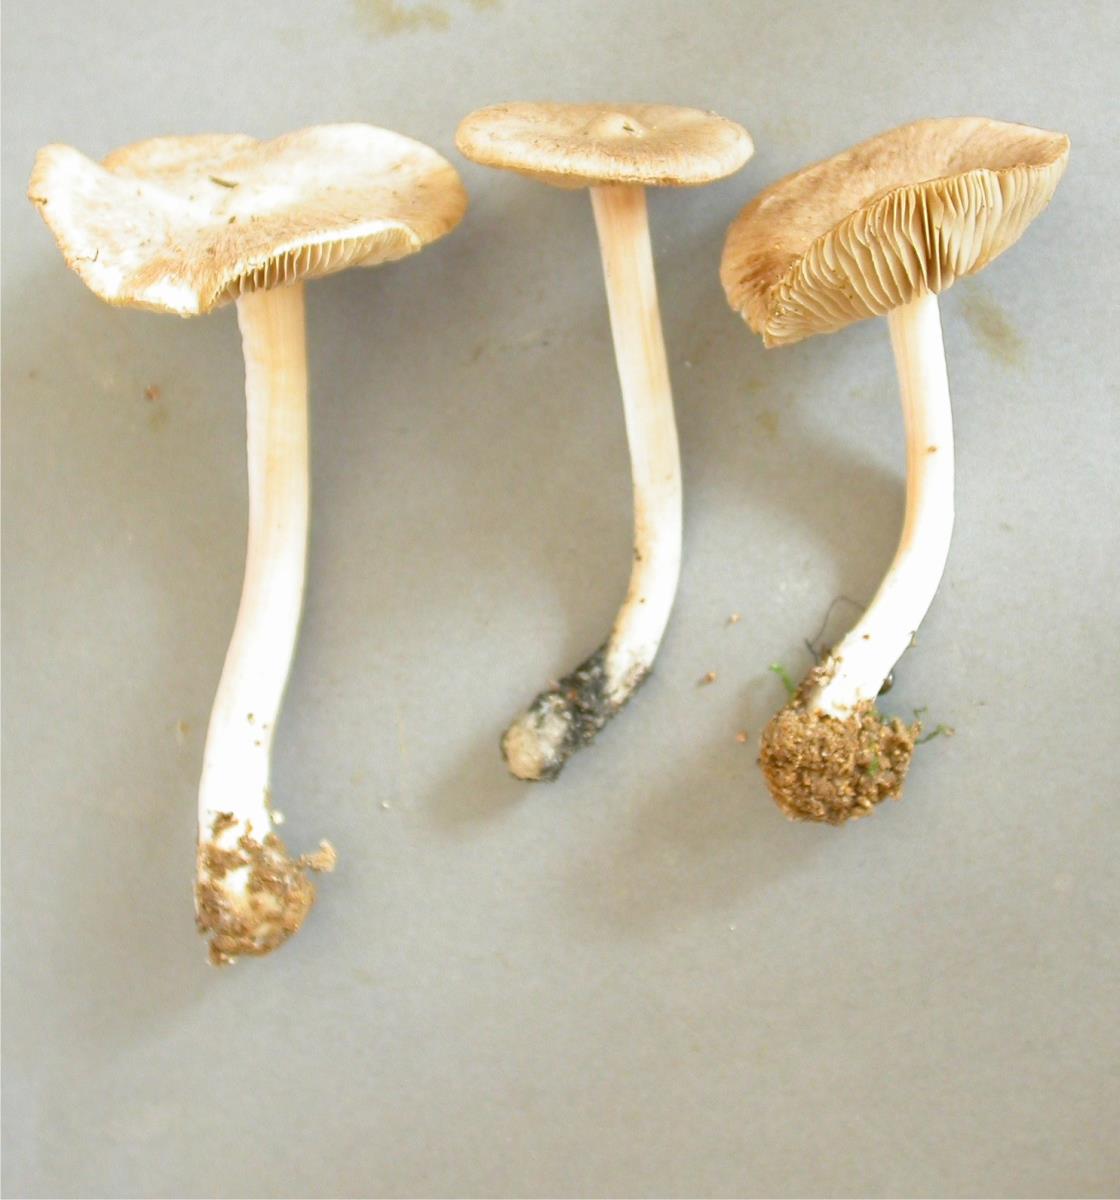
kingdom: Fungi
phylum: Basidiomycota
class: Agaricomycetes
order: Agaricales
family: Inocybaceae
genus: Inocybe
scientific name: Inocybe sindonia
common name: Beige fibrecap
